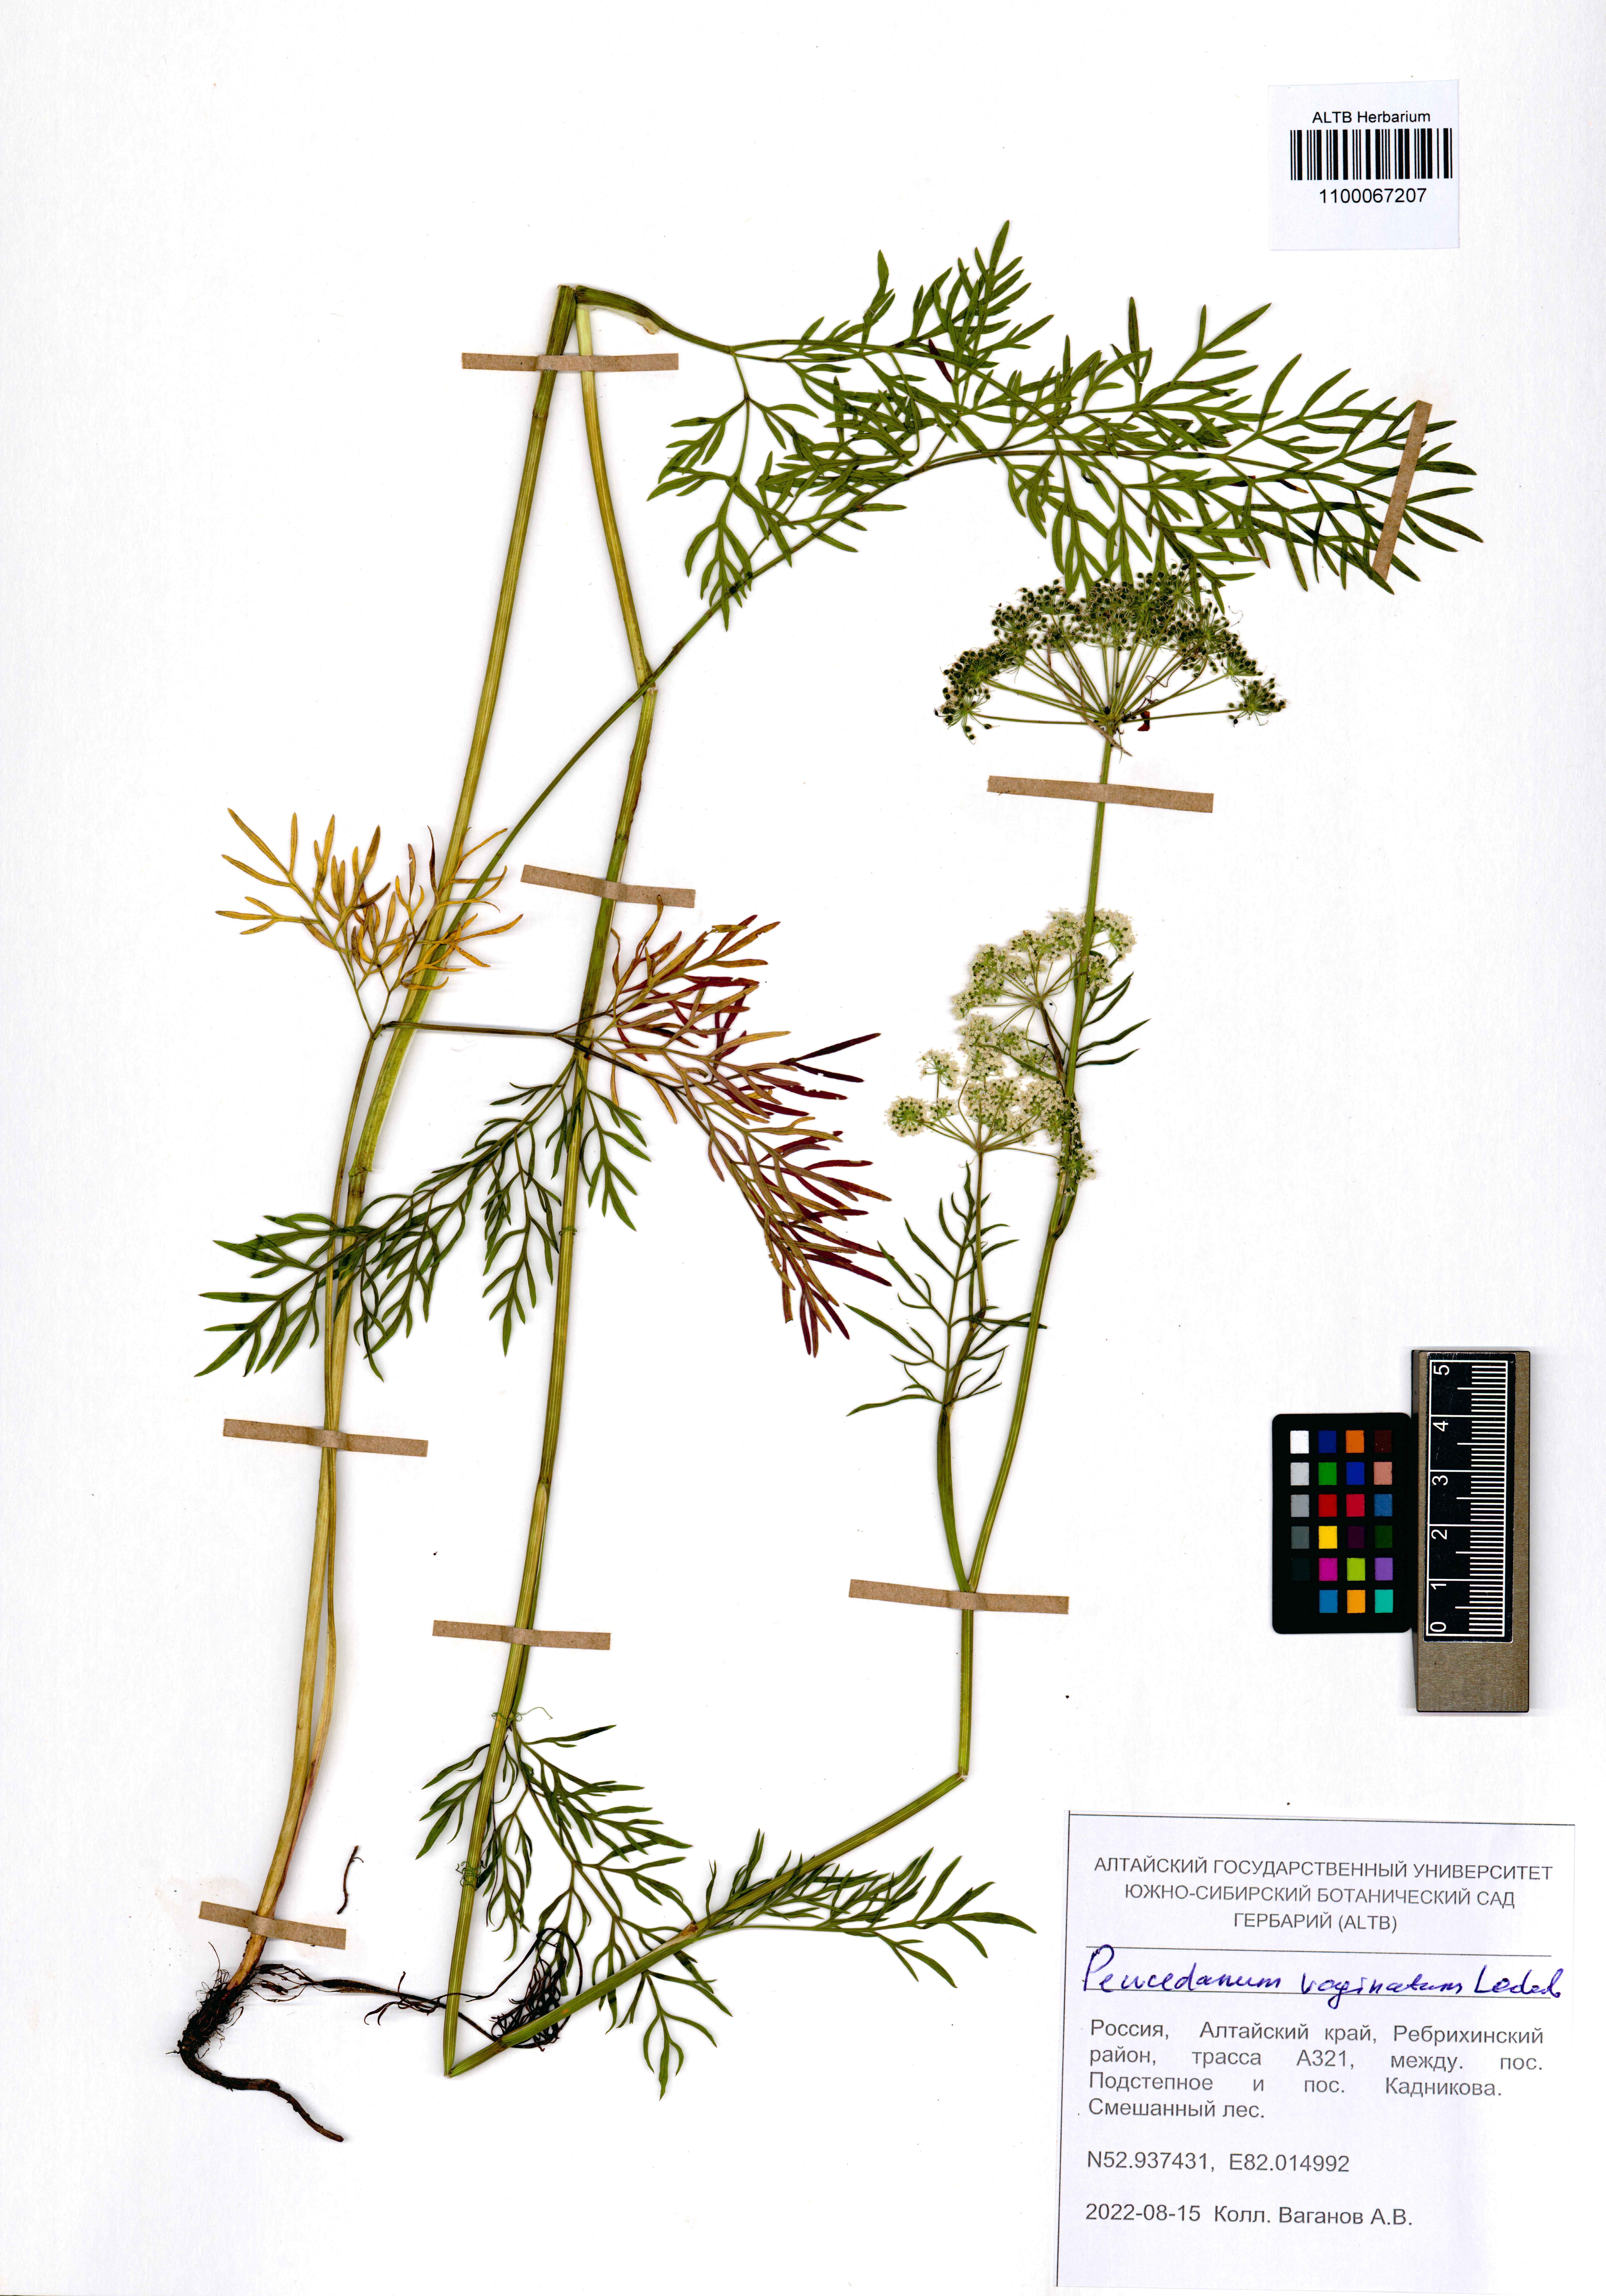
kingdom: Plantae
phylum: Tracheophyta
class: Magnoliopsida
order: Apiales
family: Apiaceae
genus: Peucedanum
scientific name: Peucedanum vaginatum
